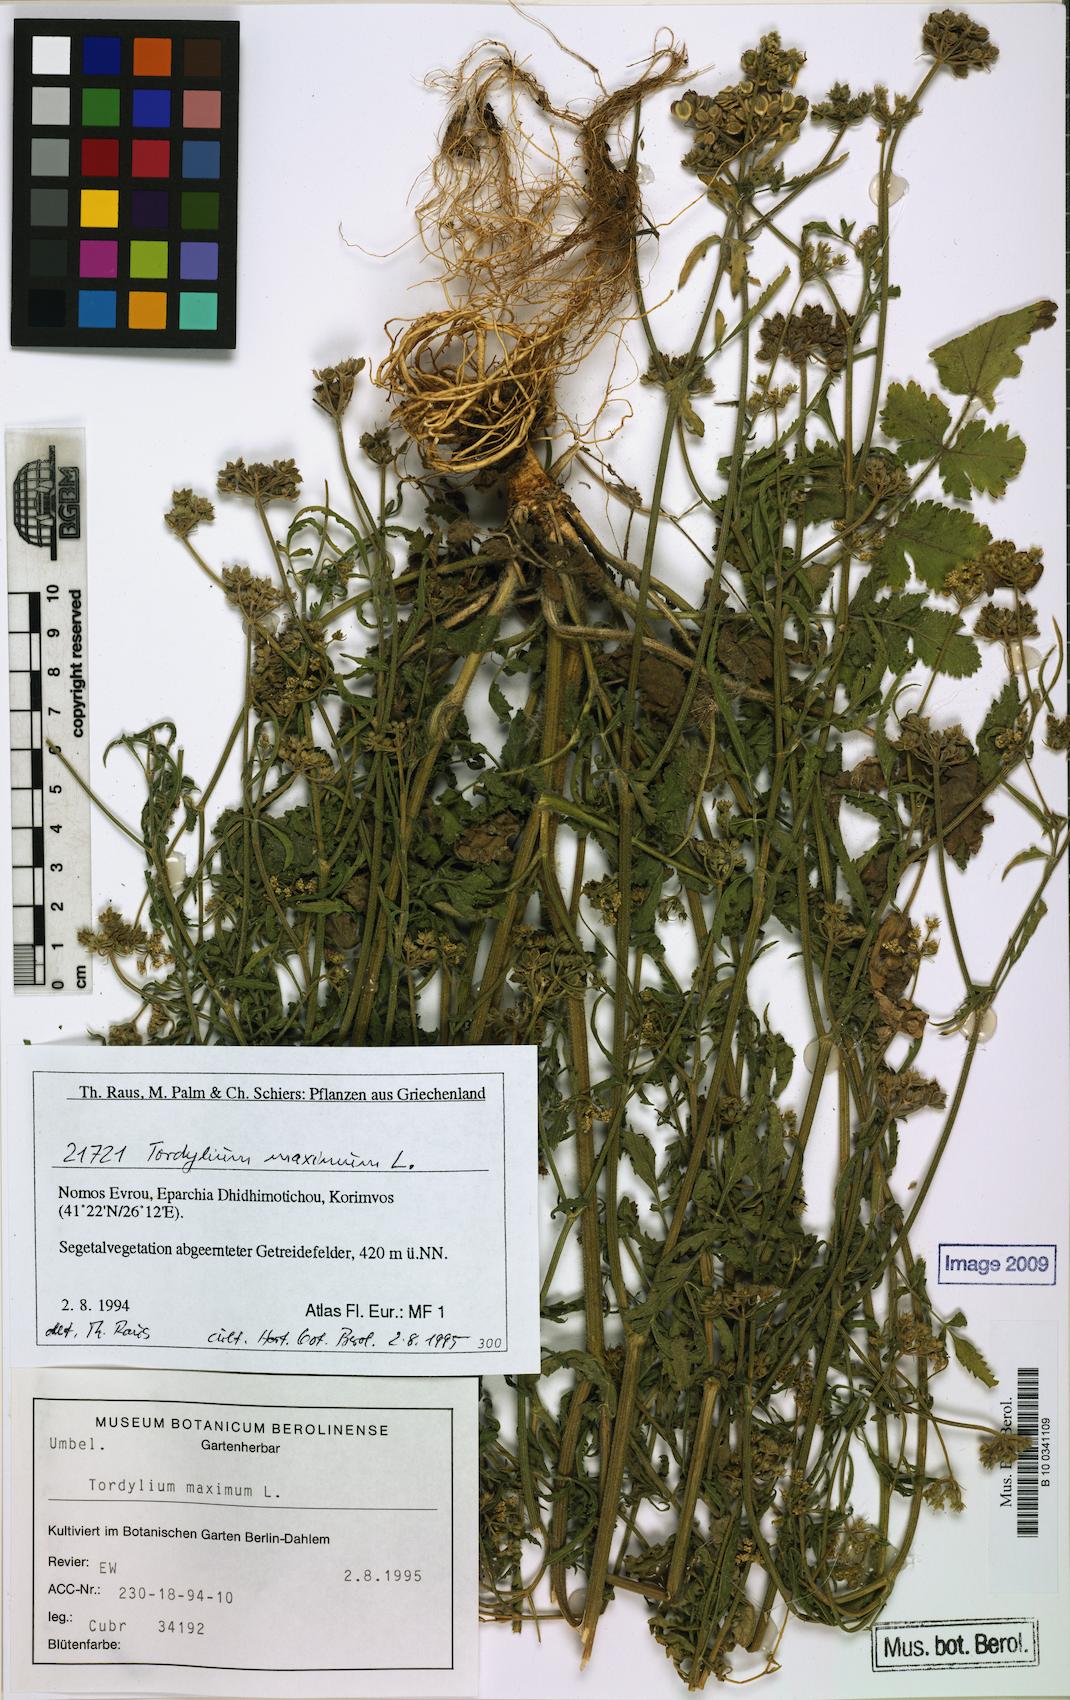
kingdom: Plantae
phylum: Tracheophyta
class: Magnoliopsida
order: Apiales
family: Apiaceae
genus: Tordylium
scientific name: Tordylium maximum
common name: Hartwort
